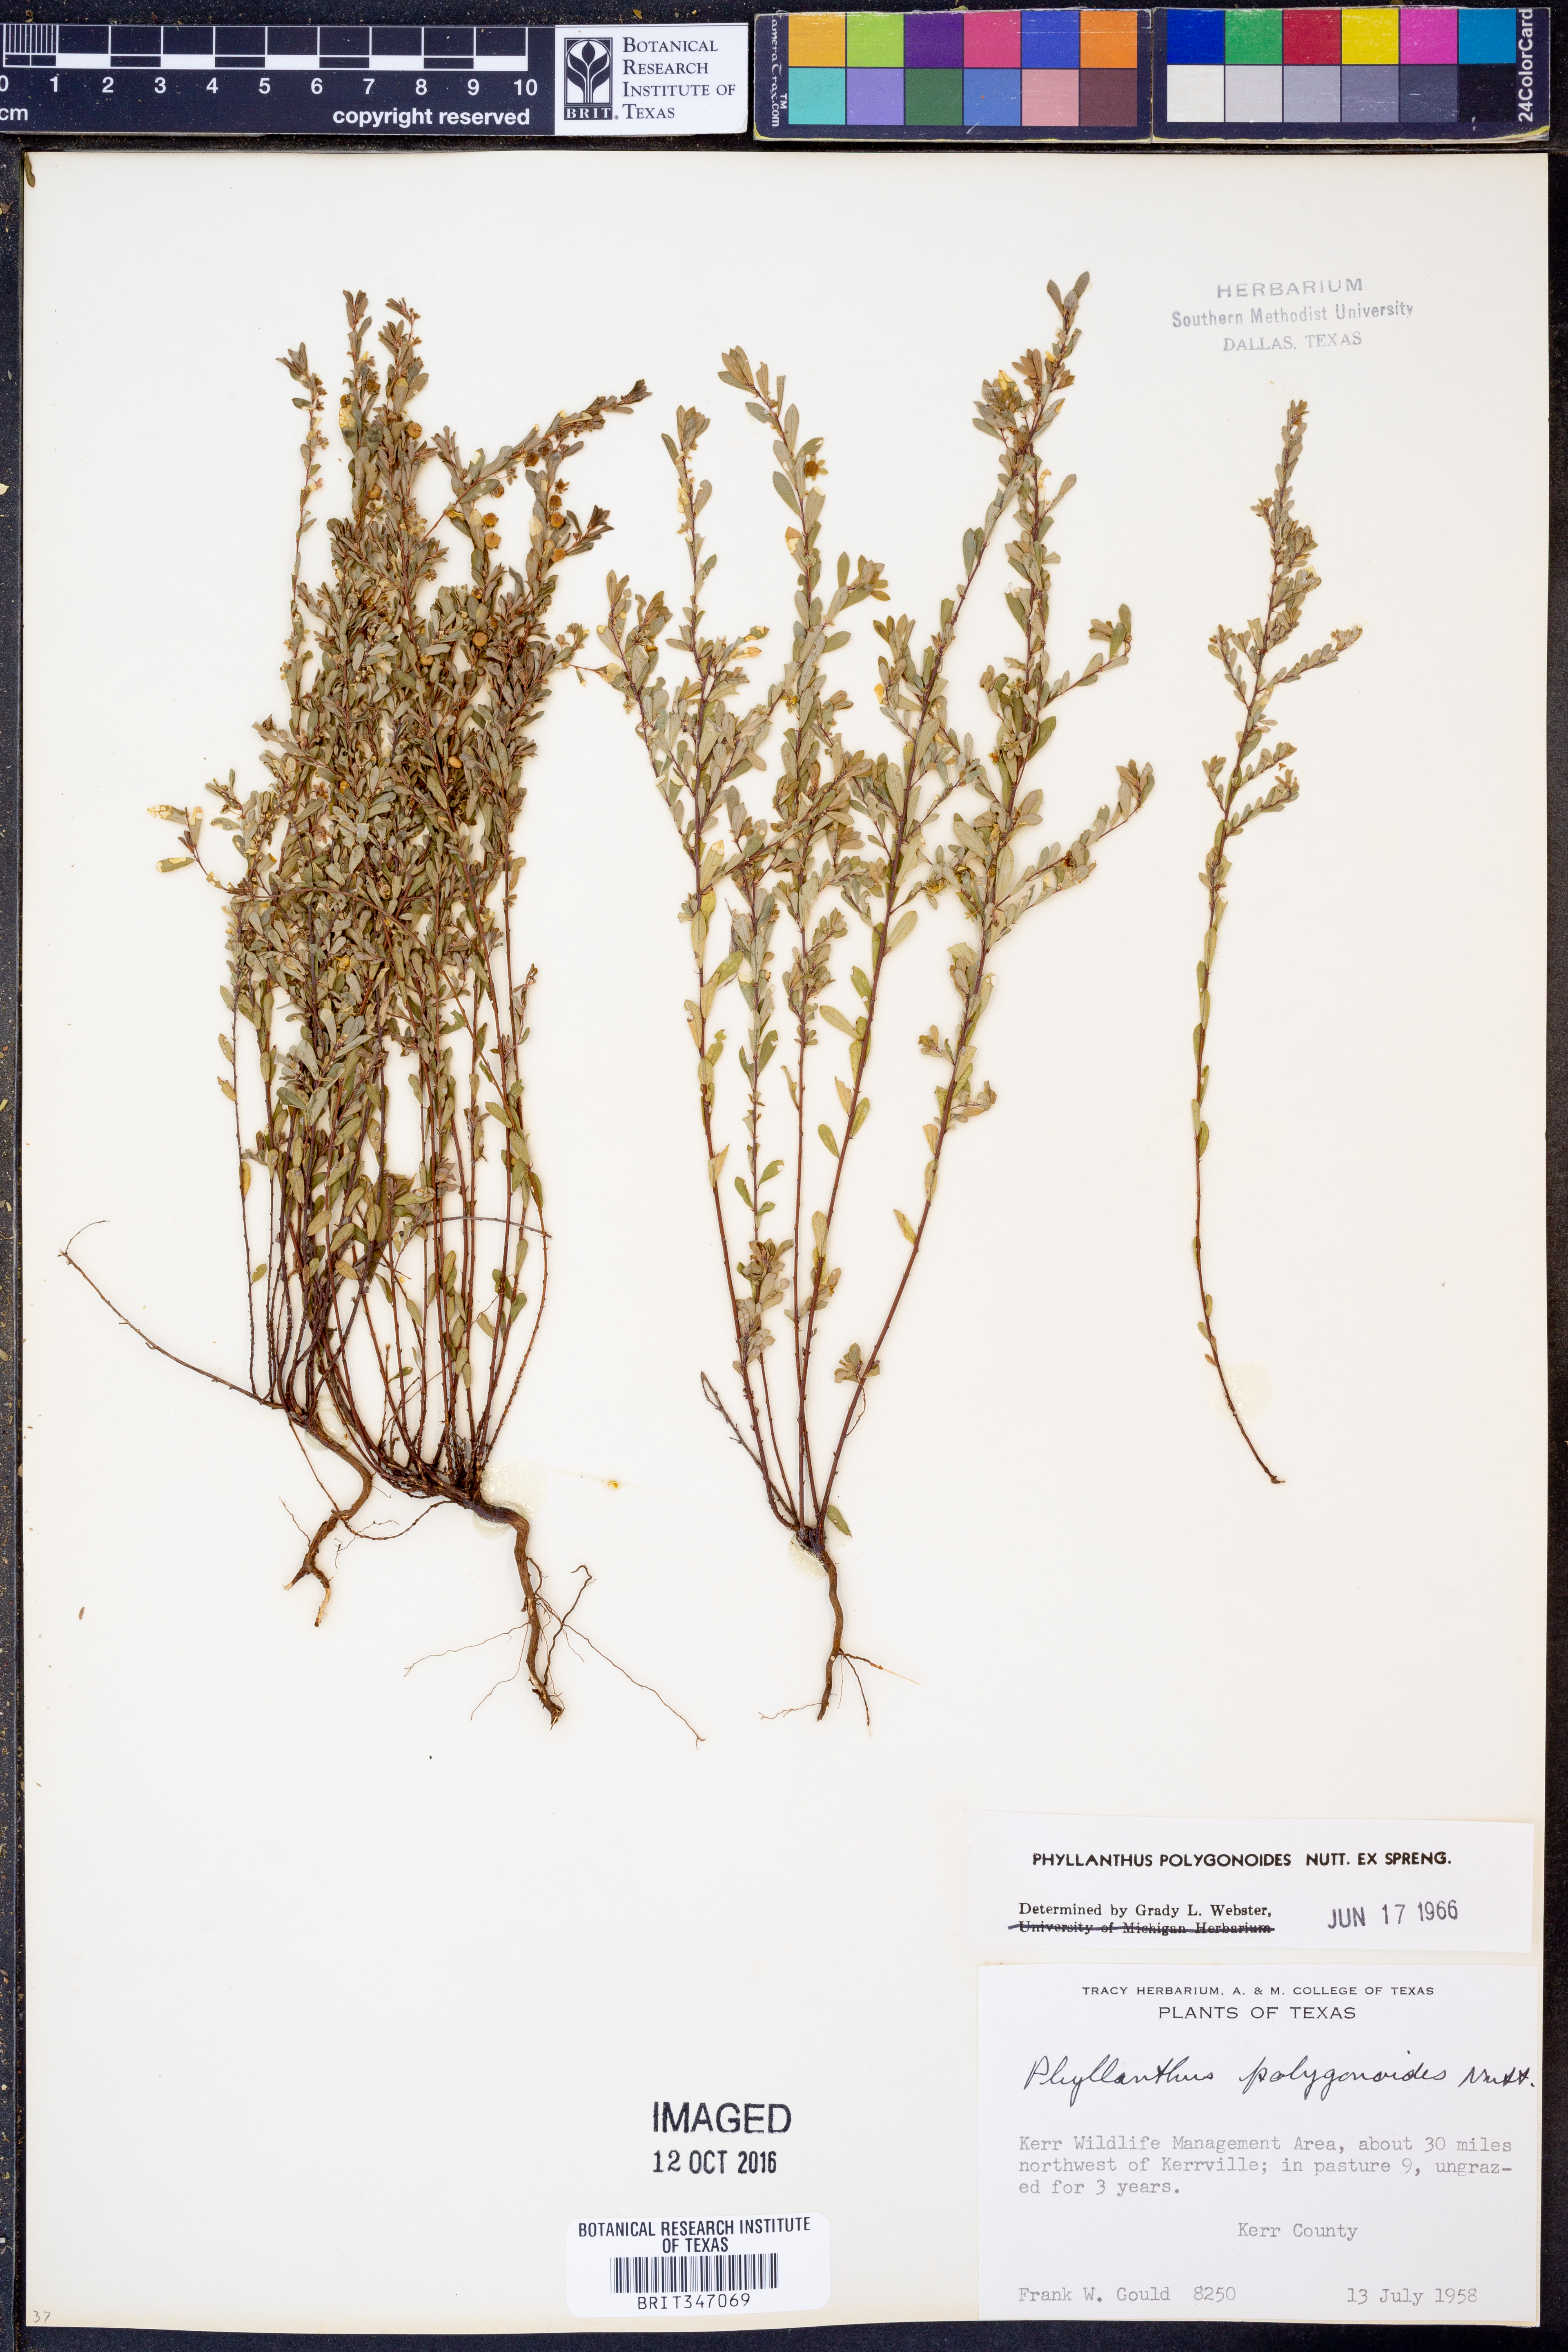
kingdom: Plantae
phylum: Tracheophyta
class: Magnoliopsida
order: Malpighiales
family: Phyllanthaceae
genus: Phyllanthus
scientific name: Phyllanthus polygonoides
